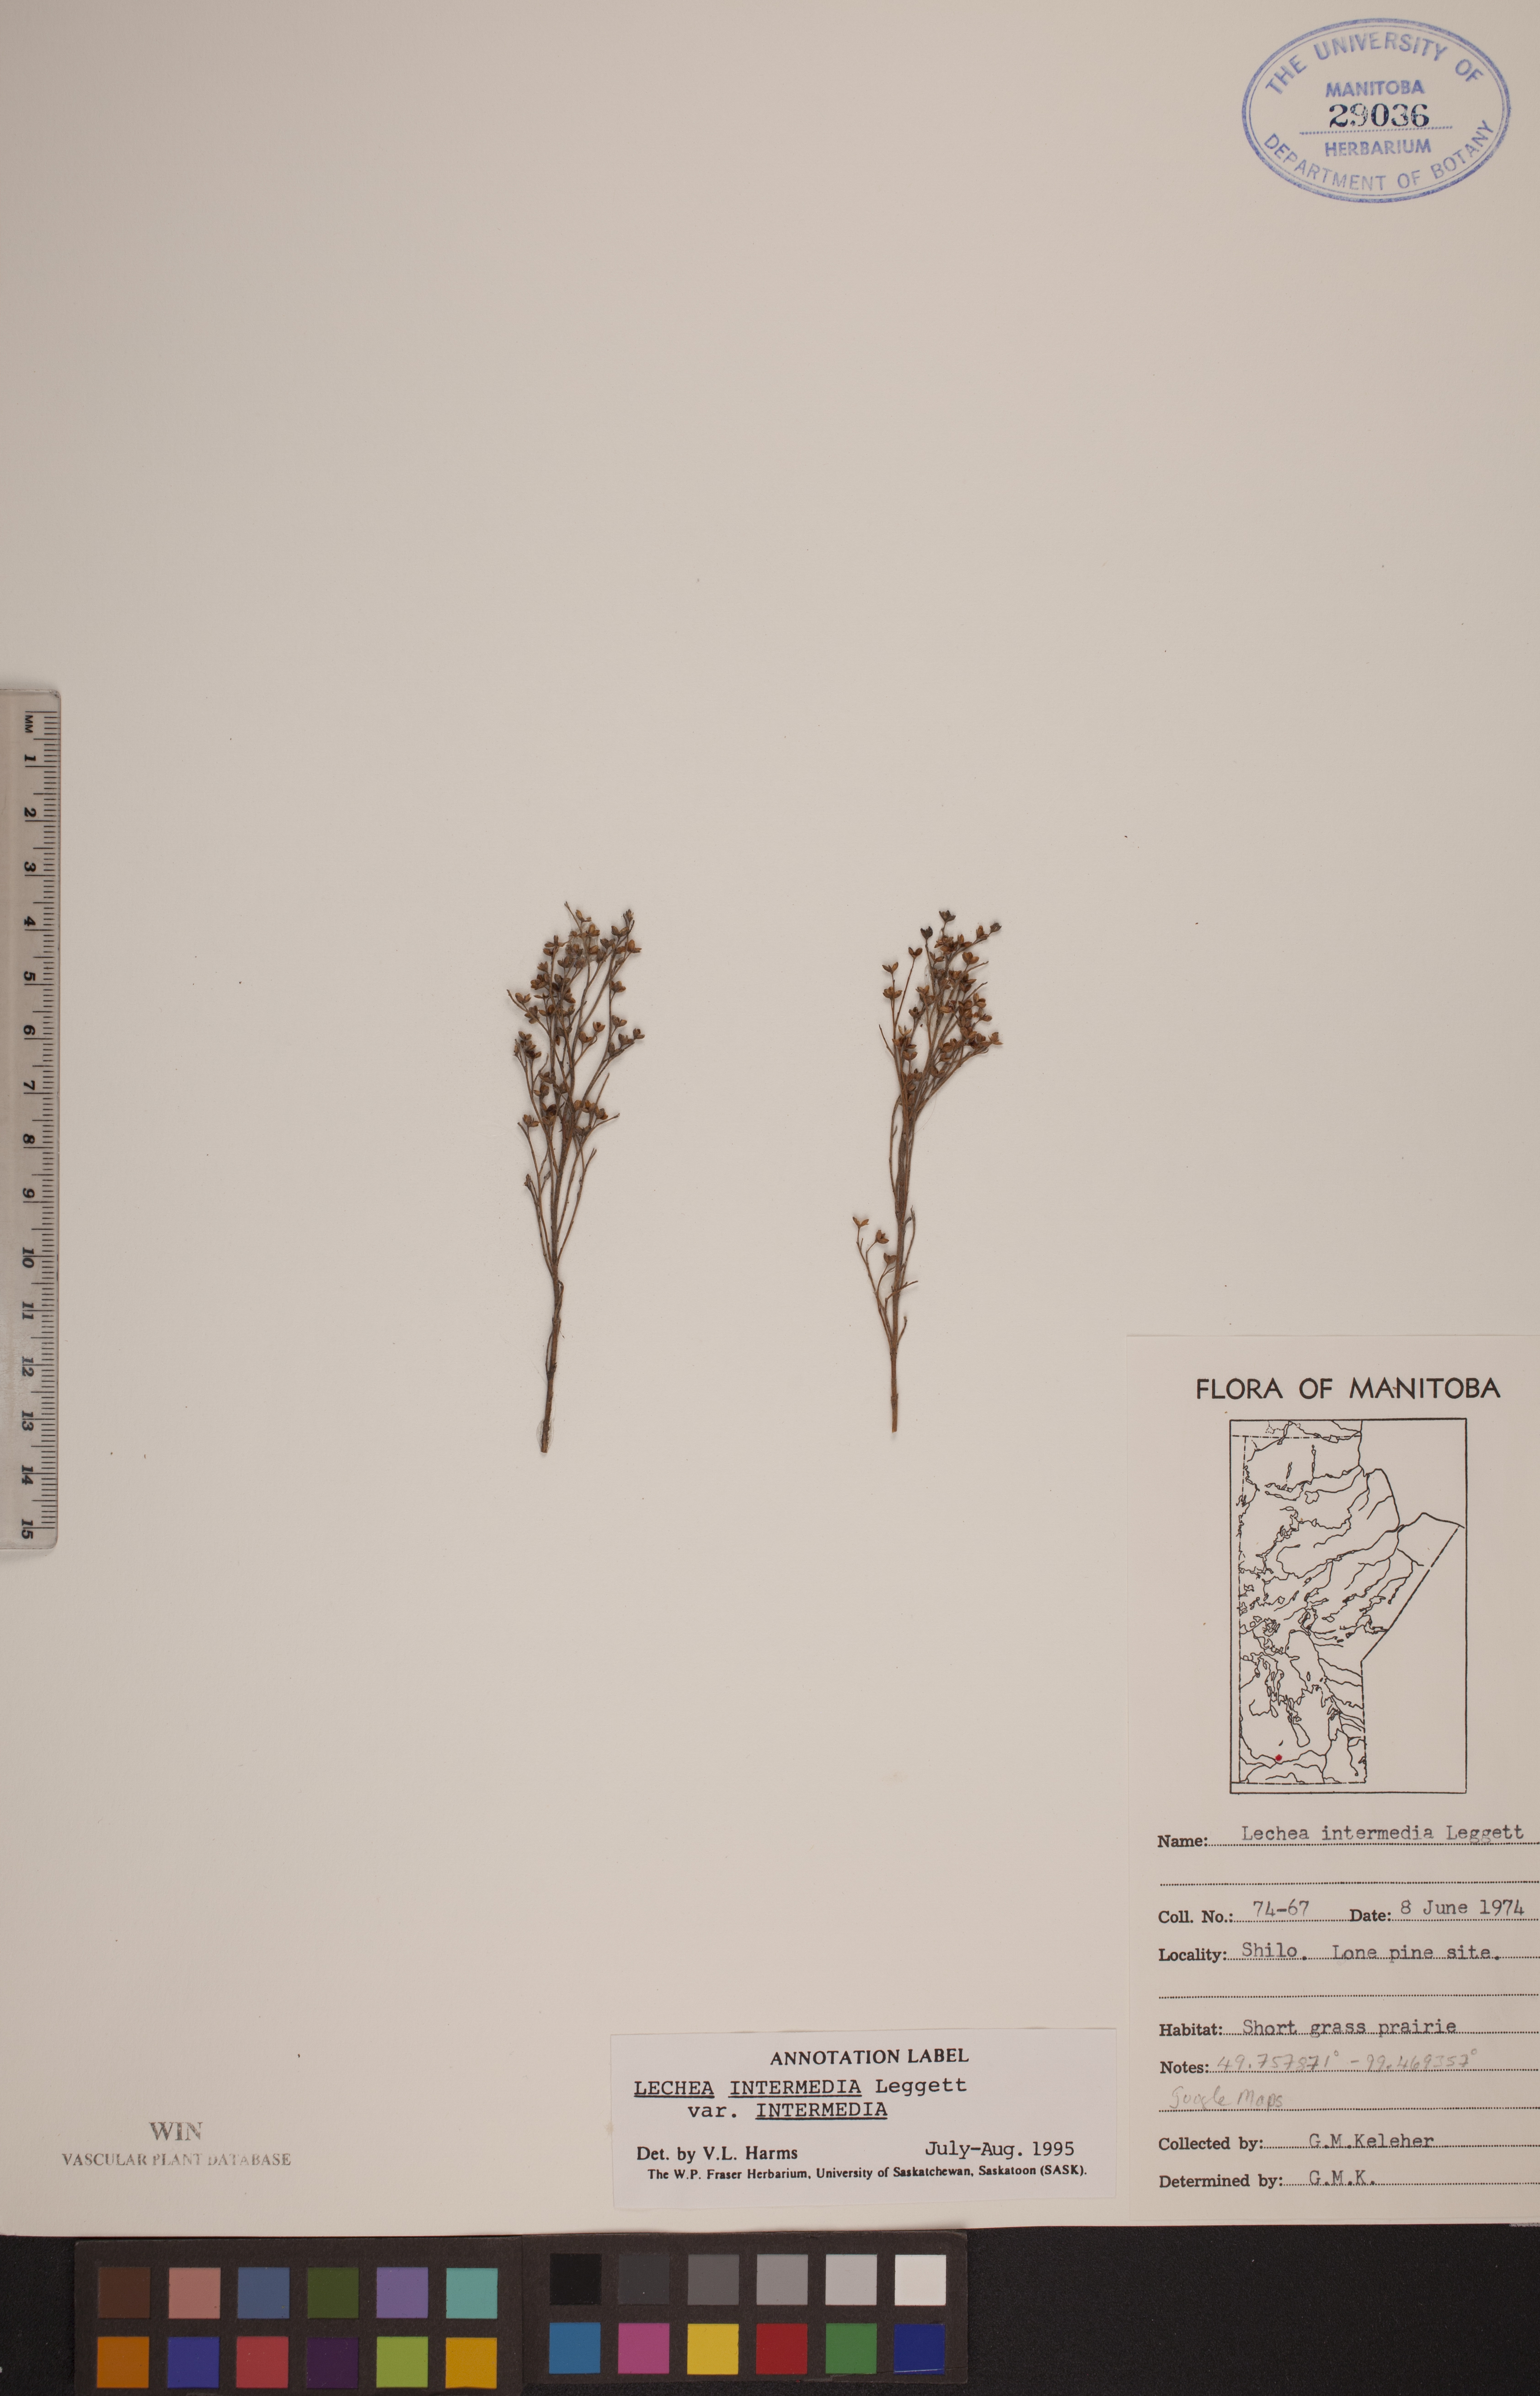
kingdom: Plantae
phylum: Tracheophyta
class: Magnoliopsida
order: Malvales
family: Cistaceae
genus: Lechea
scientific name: Lechea intermedia
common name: Intermediate pinweed
